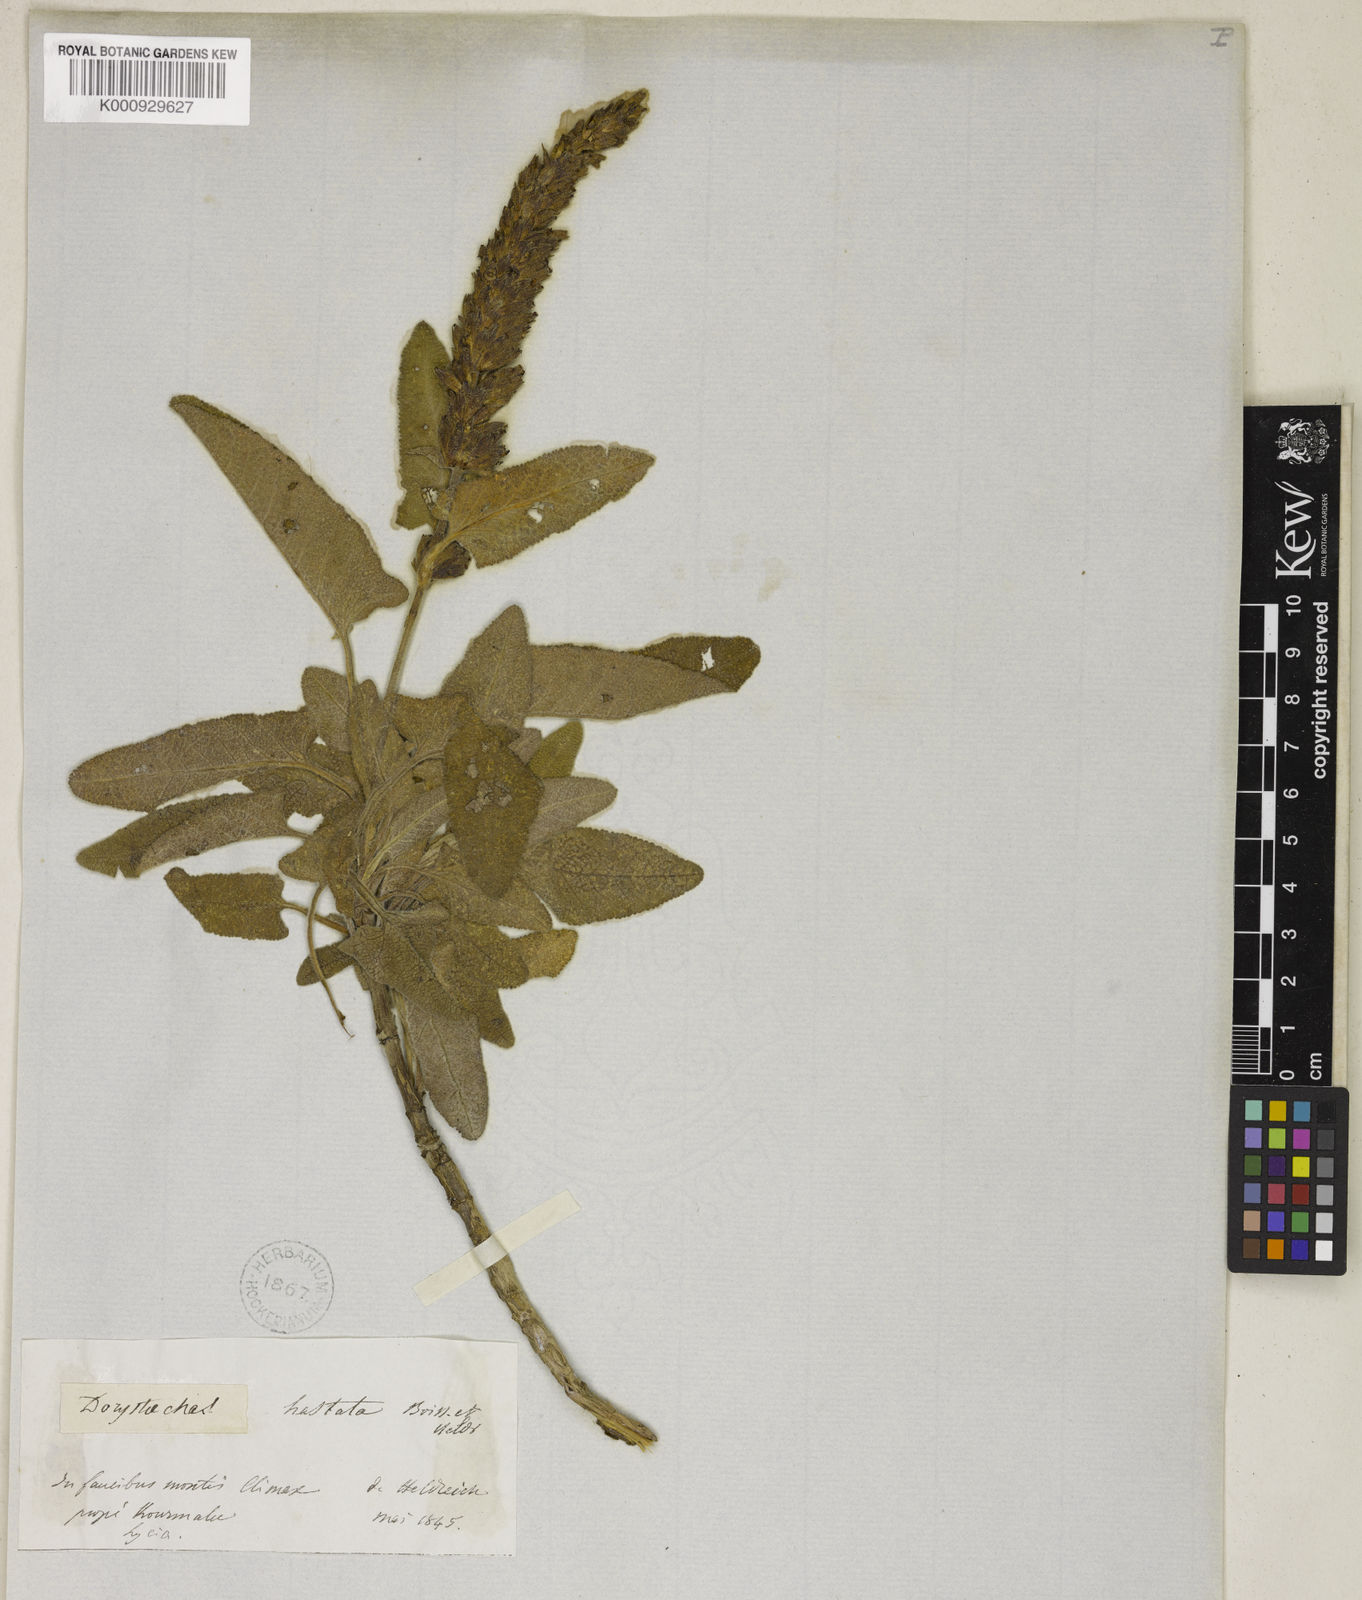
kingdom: Plantae
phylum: Tracheophyta
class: Magnoliopsida
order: Lamiales
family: Lamiaceae
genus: Salvia
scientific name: Salvia dorystaechas
